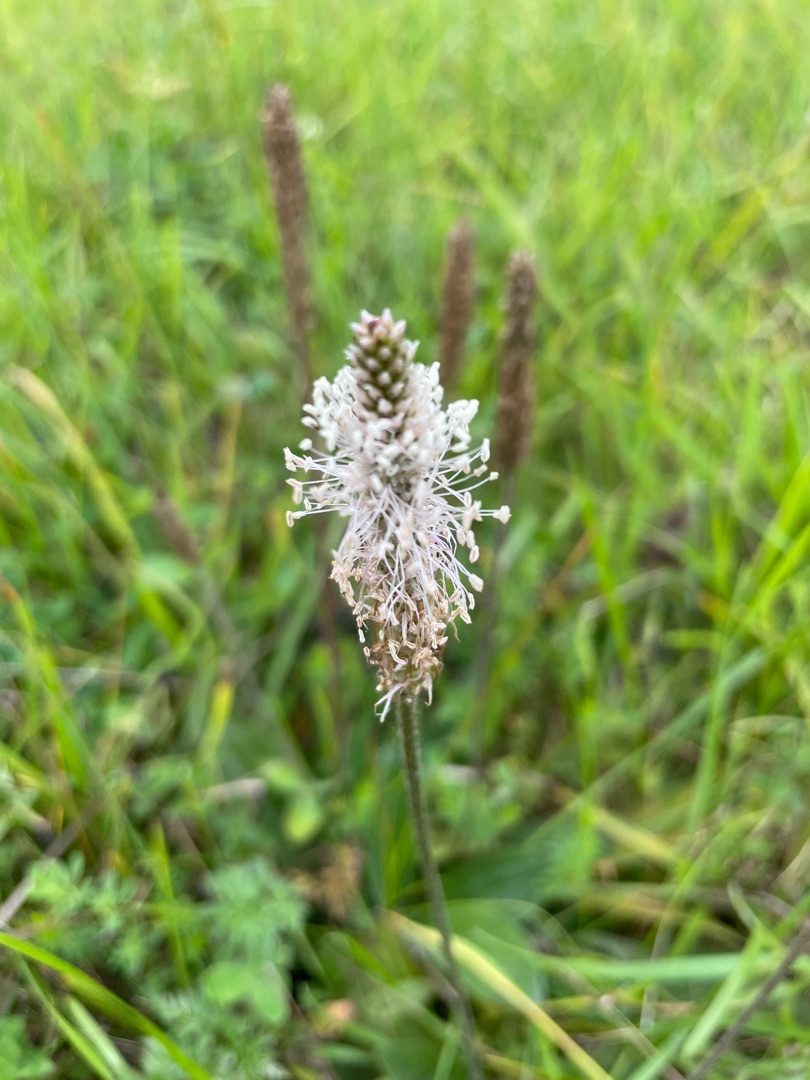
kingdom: Plantae
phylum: Tracheophyta
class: Magnoliopsida
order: Lamiales
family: Plantaginaceae
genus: Plantago
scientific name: Plantago media
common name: Dunet vejbred
